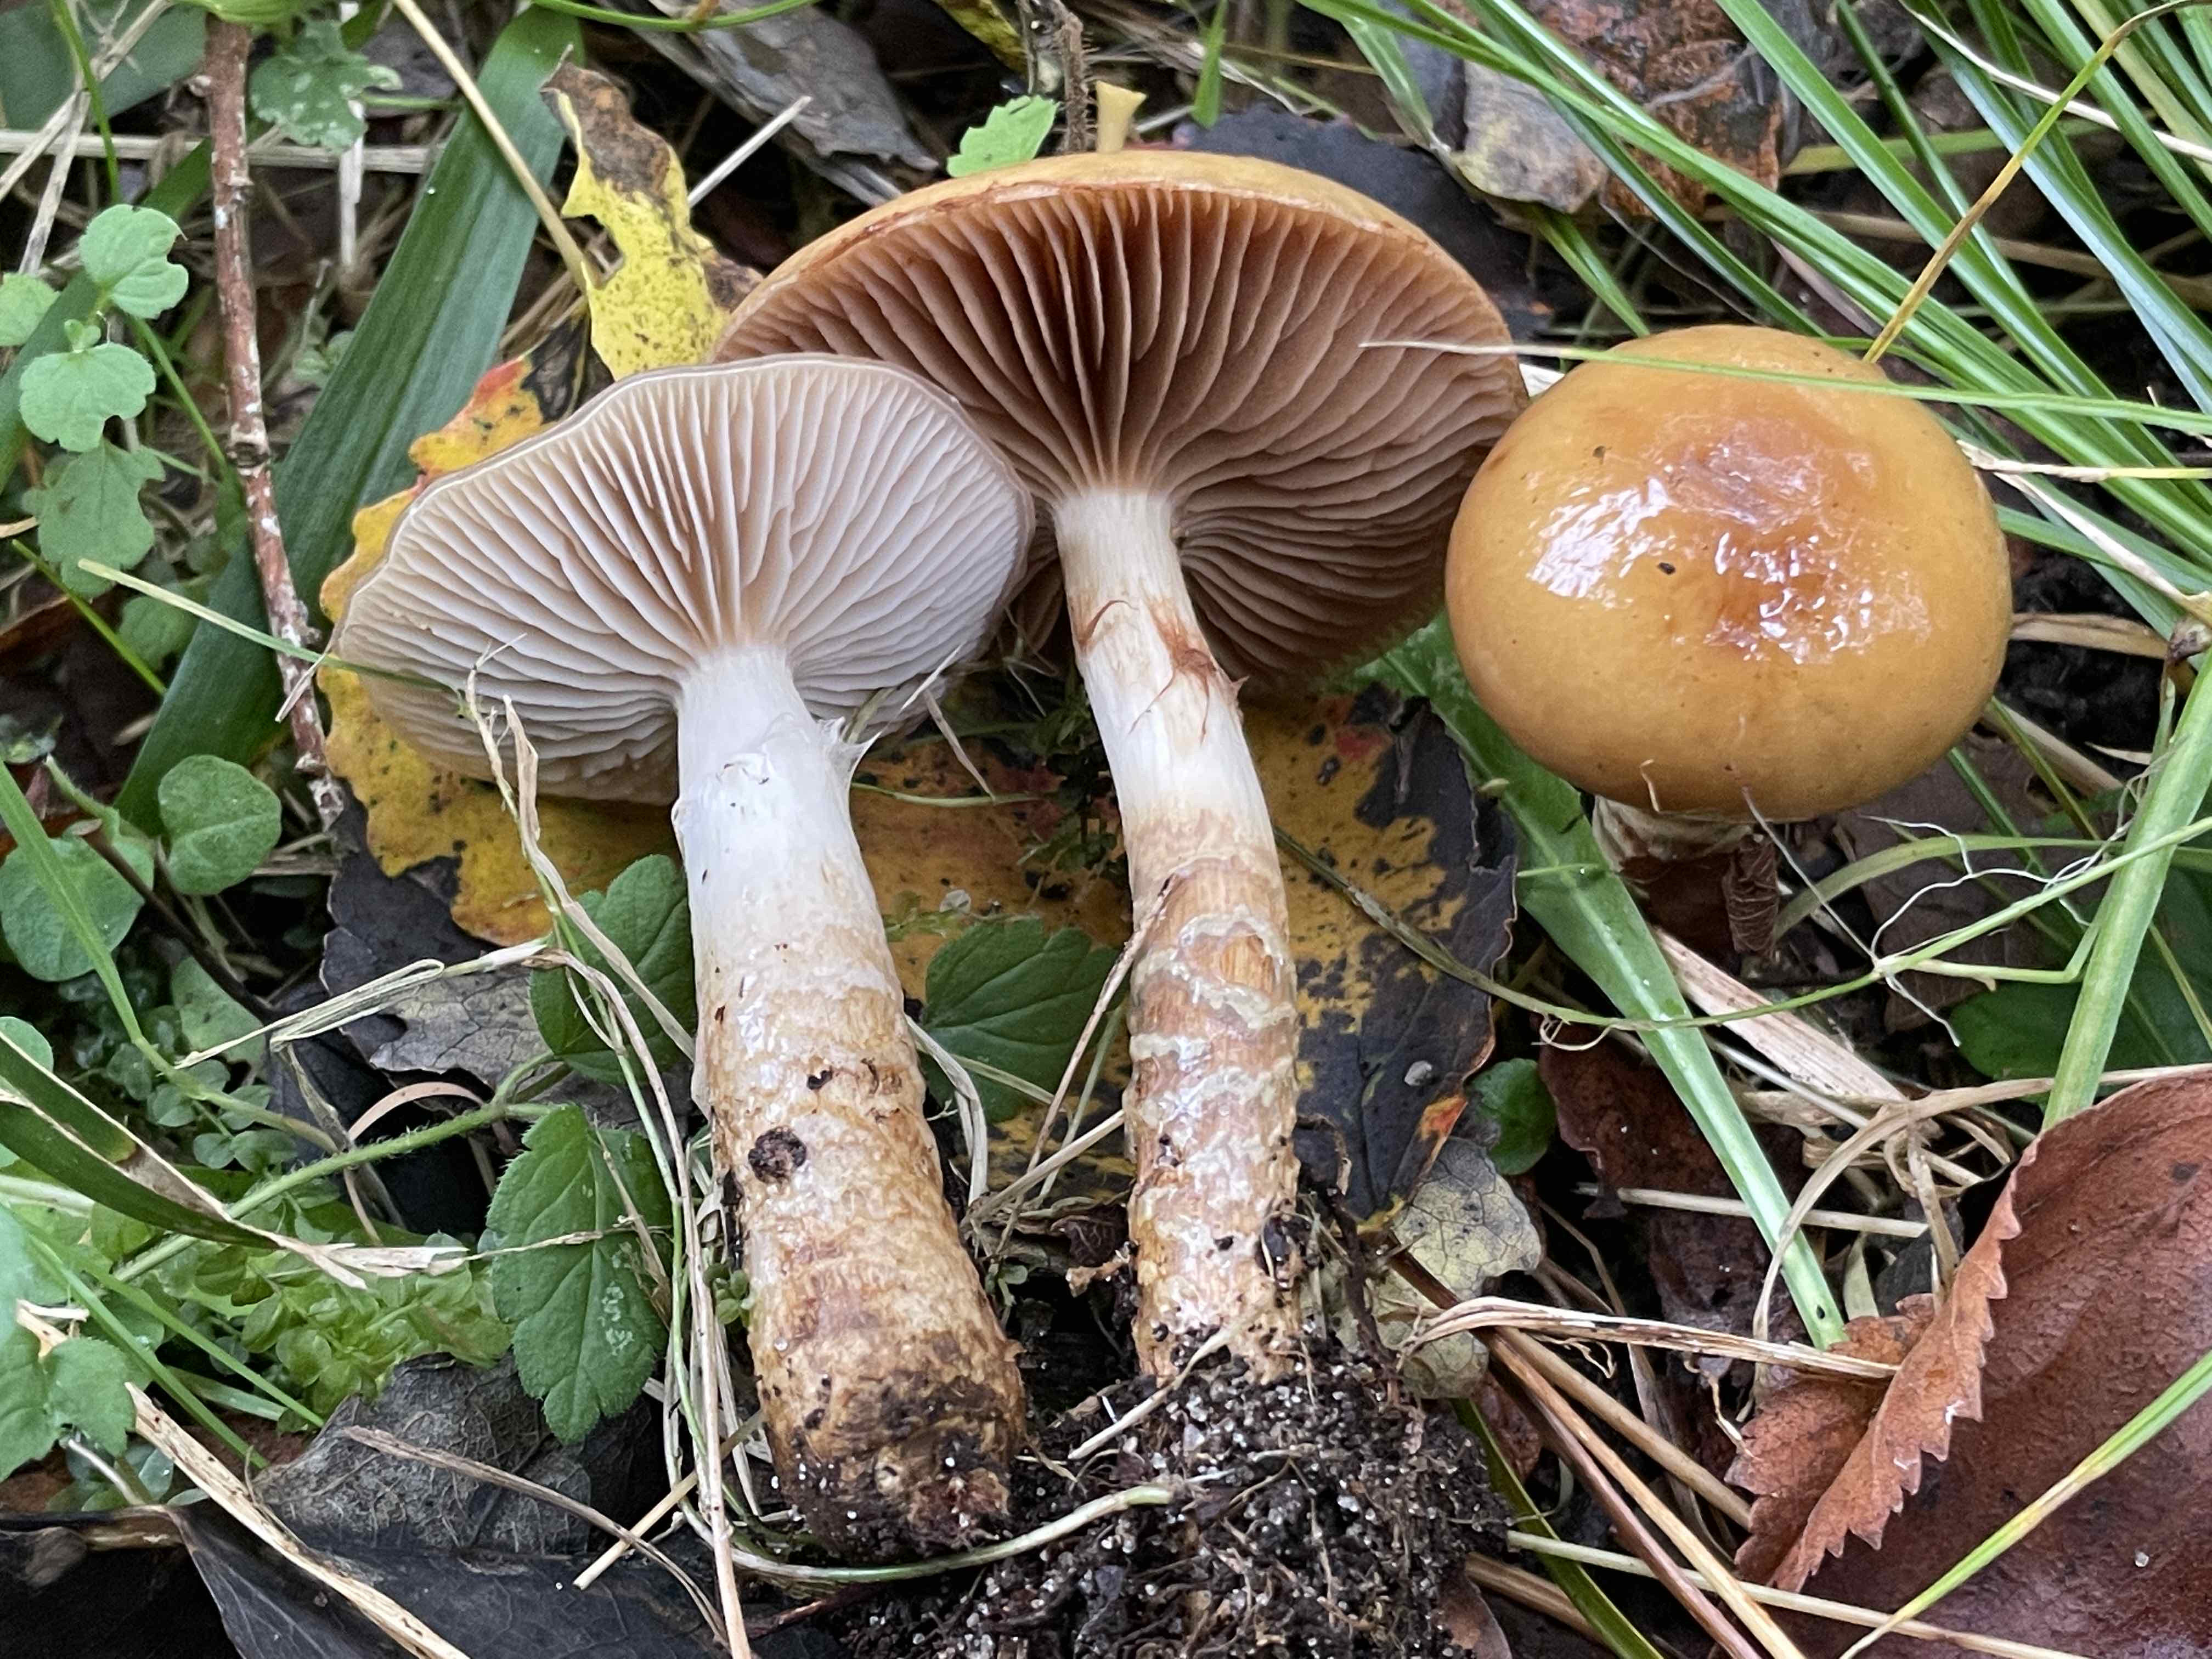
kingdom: Fungi
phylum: Basidiomycota
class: Agaricomycetes
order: Agaricales
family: Cortinariaceae
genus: Cortinarius
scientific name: Cortinarius alpinus
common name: Mountain webcap
